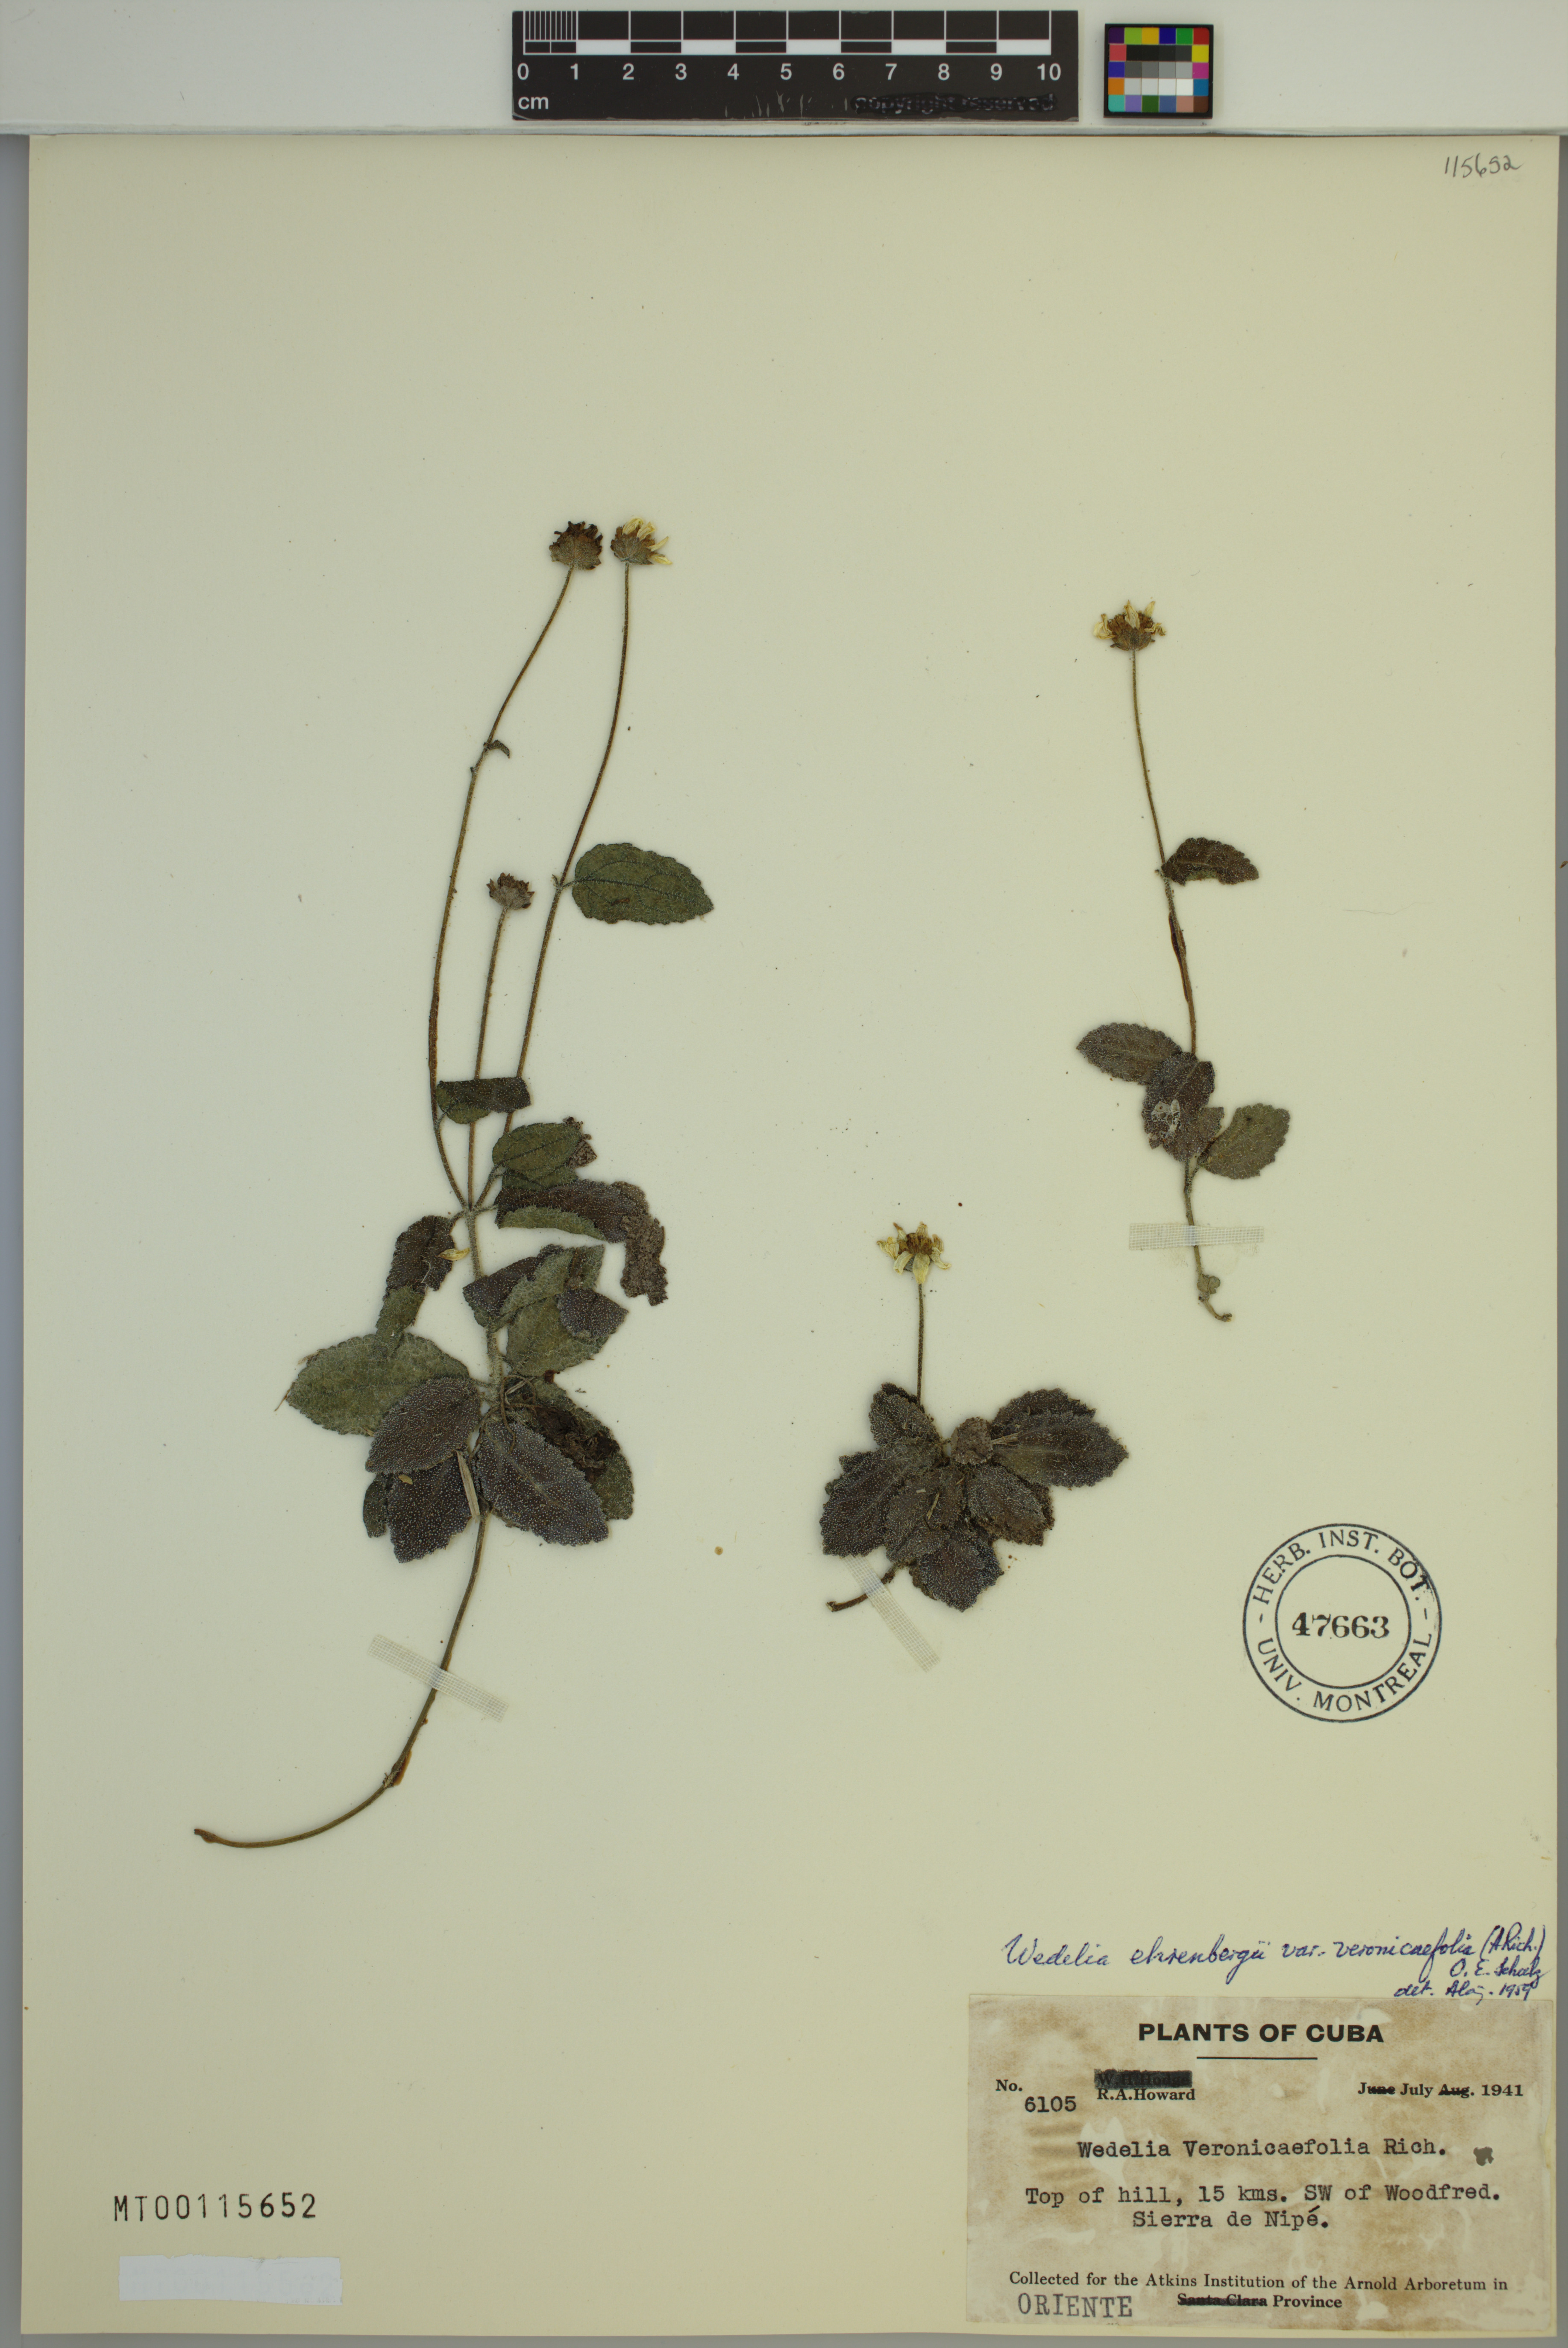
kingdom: Plantae
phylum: Tracheophyta
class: Magnoliopsida
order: Asterales
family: Asteraceae
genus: Wedelia
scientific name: Wedelia ehrenbergii
